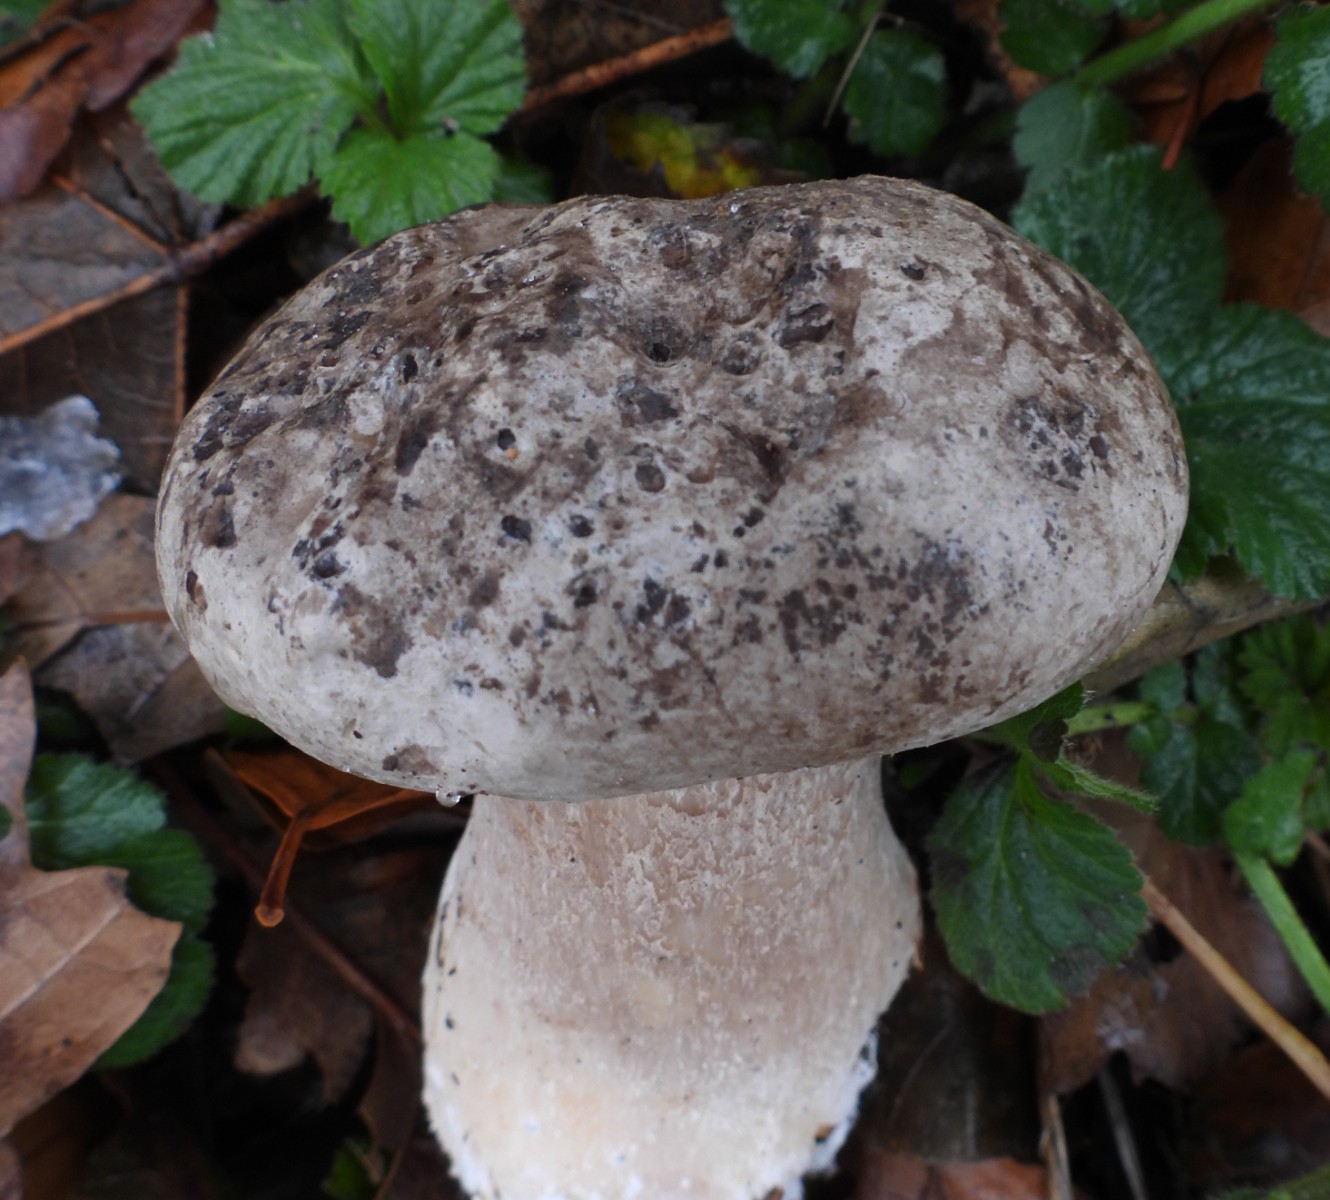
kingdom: Fungi
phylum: Basidiomycota
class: Agaricomycetes
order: Agaricales
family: Tricholomataceae
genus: Clitocybe
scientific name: Clitocybe nebularis
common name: tåge-tragthat
